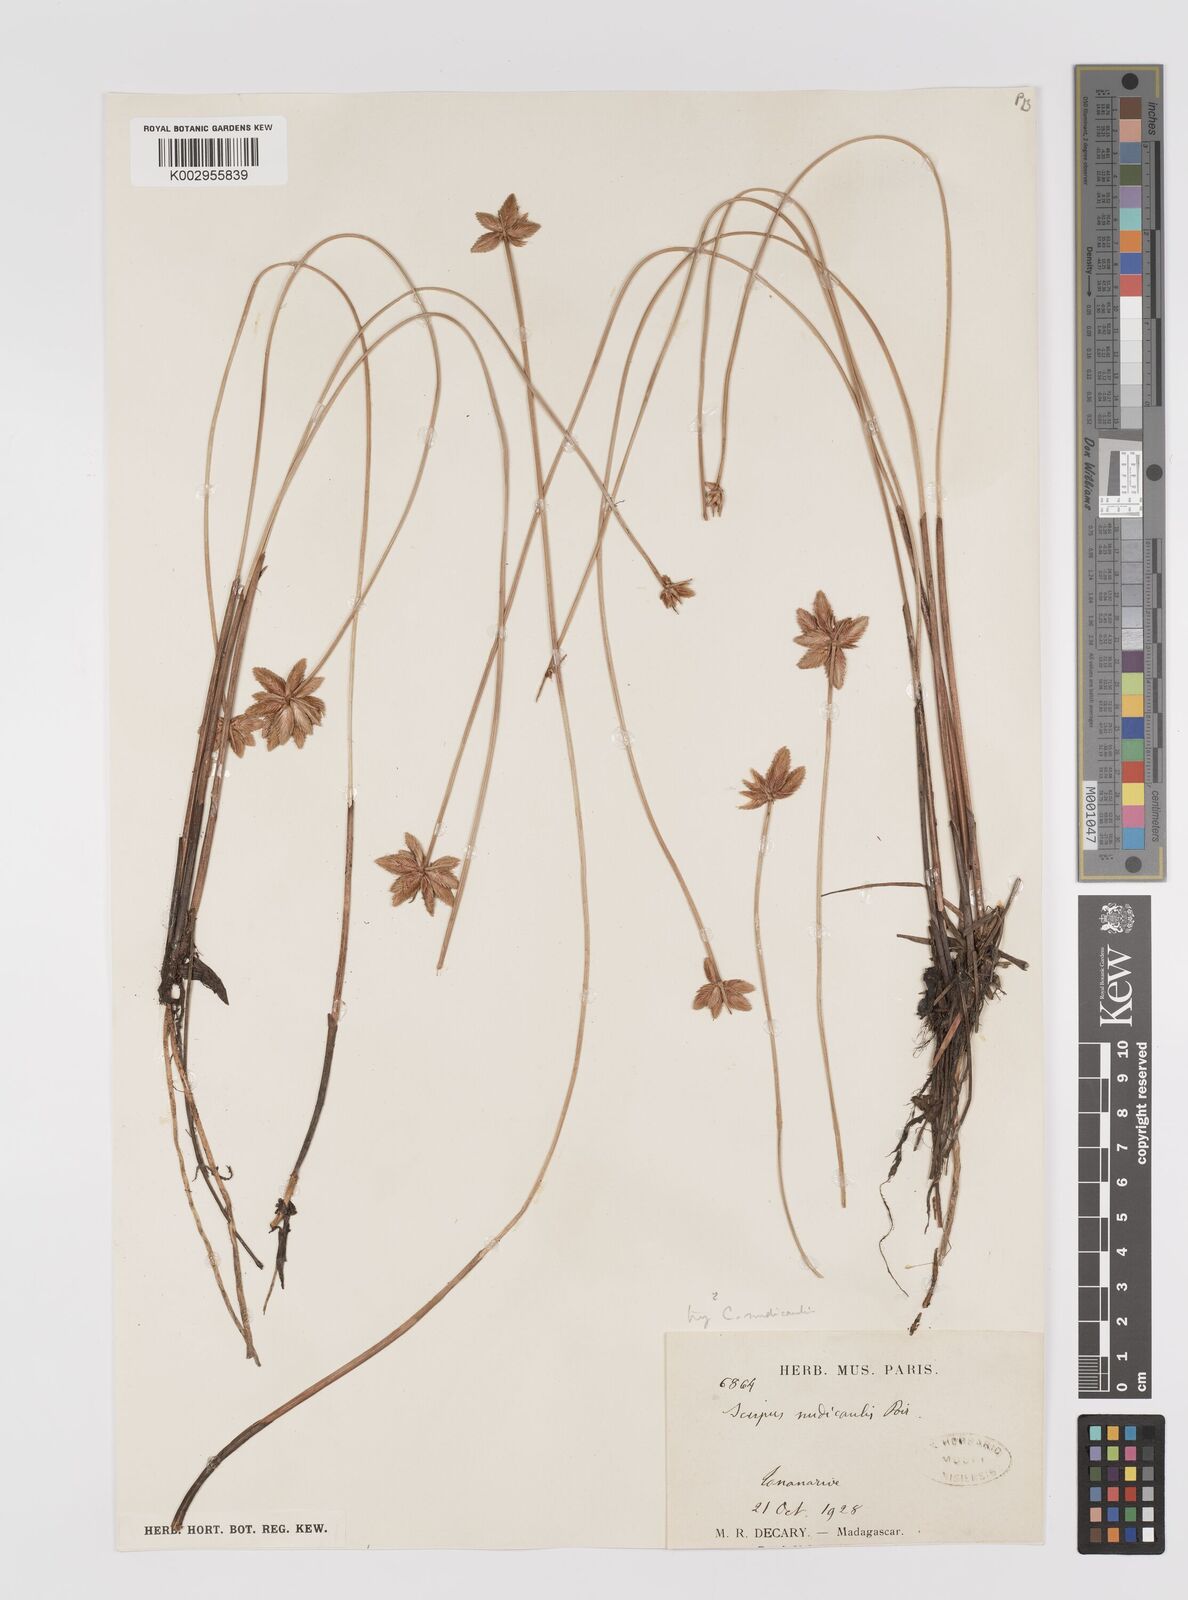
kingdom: Plantae
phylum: Tracheophyta
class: Liliopsida
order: Poales
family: Cyperaceae
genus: Cyperus
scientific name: Cyperus compressus
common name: Poorland flatsedge
